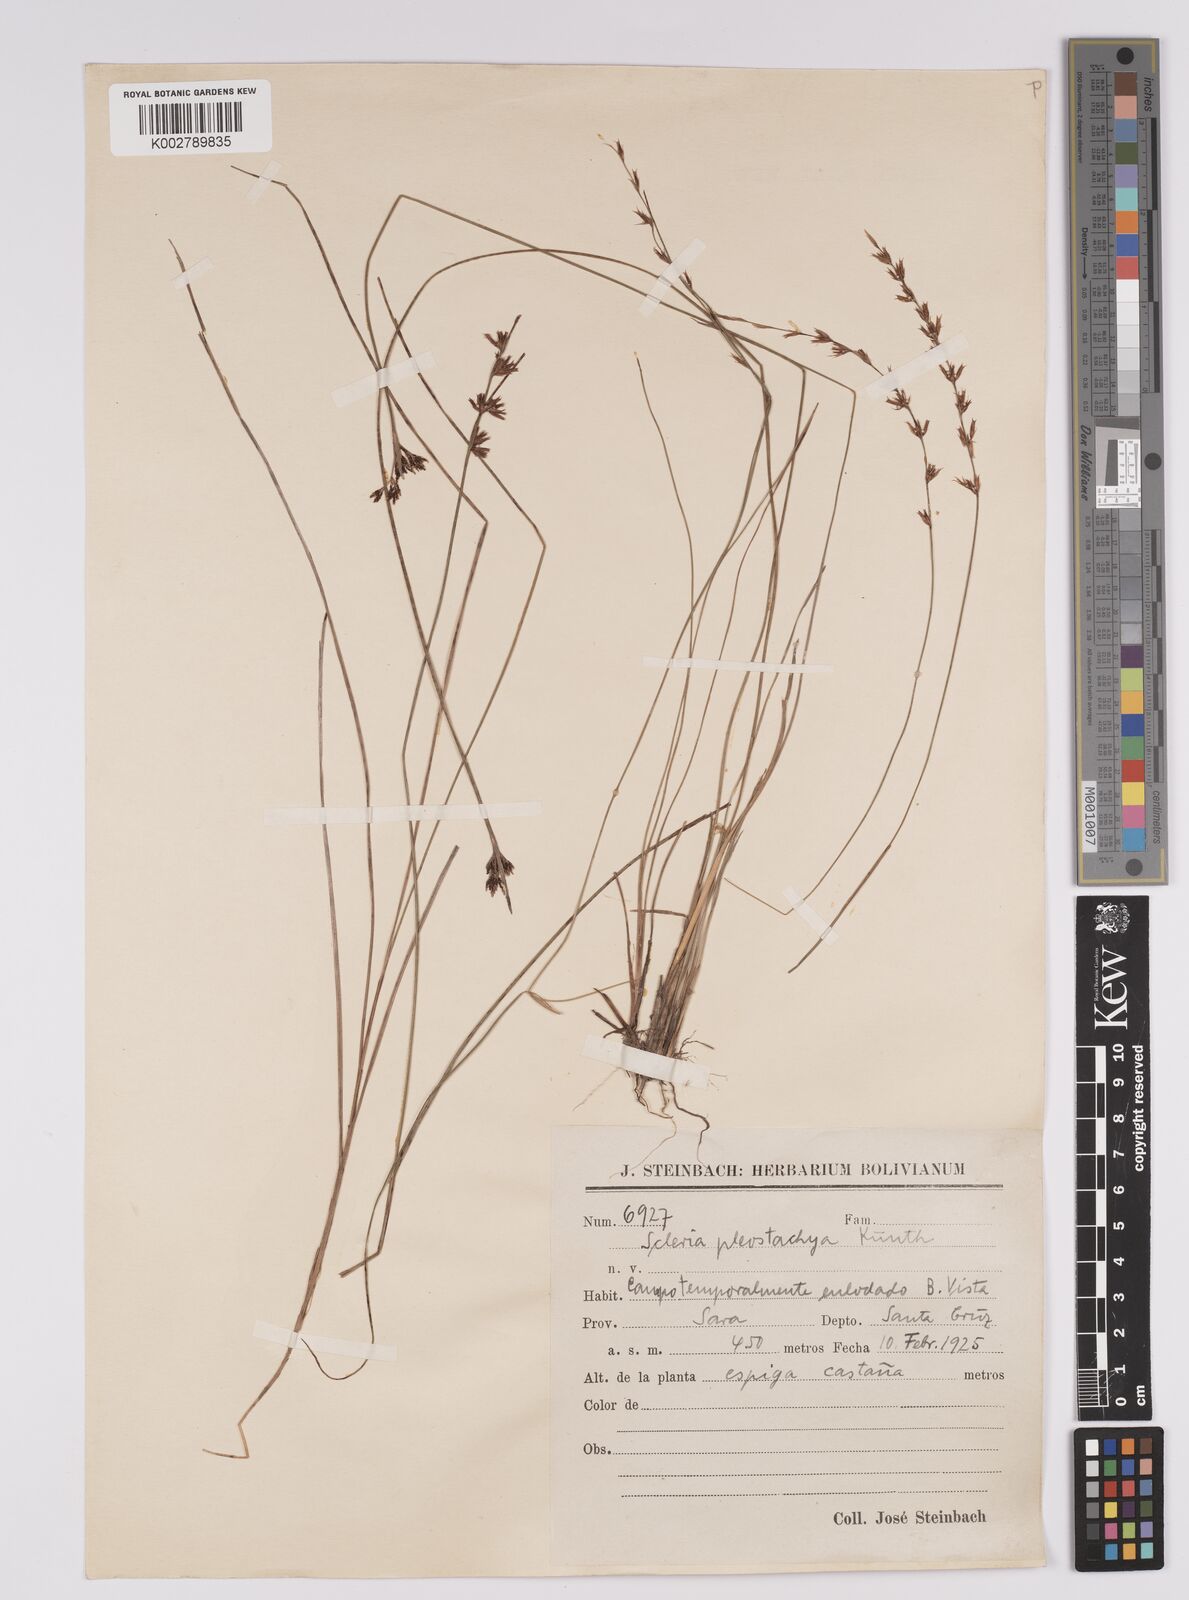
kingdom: Plantae
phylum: Tracheophyta
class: Liliopsida
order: Poales
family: Cyperaceae
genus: Scleria
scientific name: Scleria spicata
